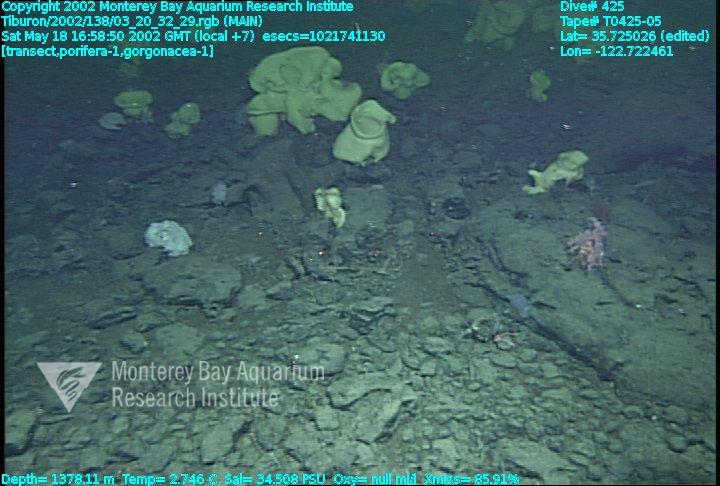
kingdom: Animalia
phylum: Porifera
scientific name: Porifera
